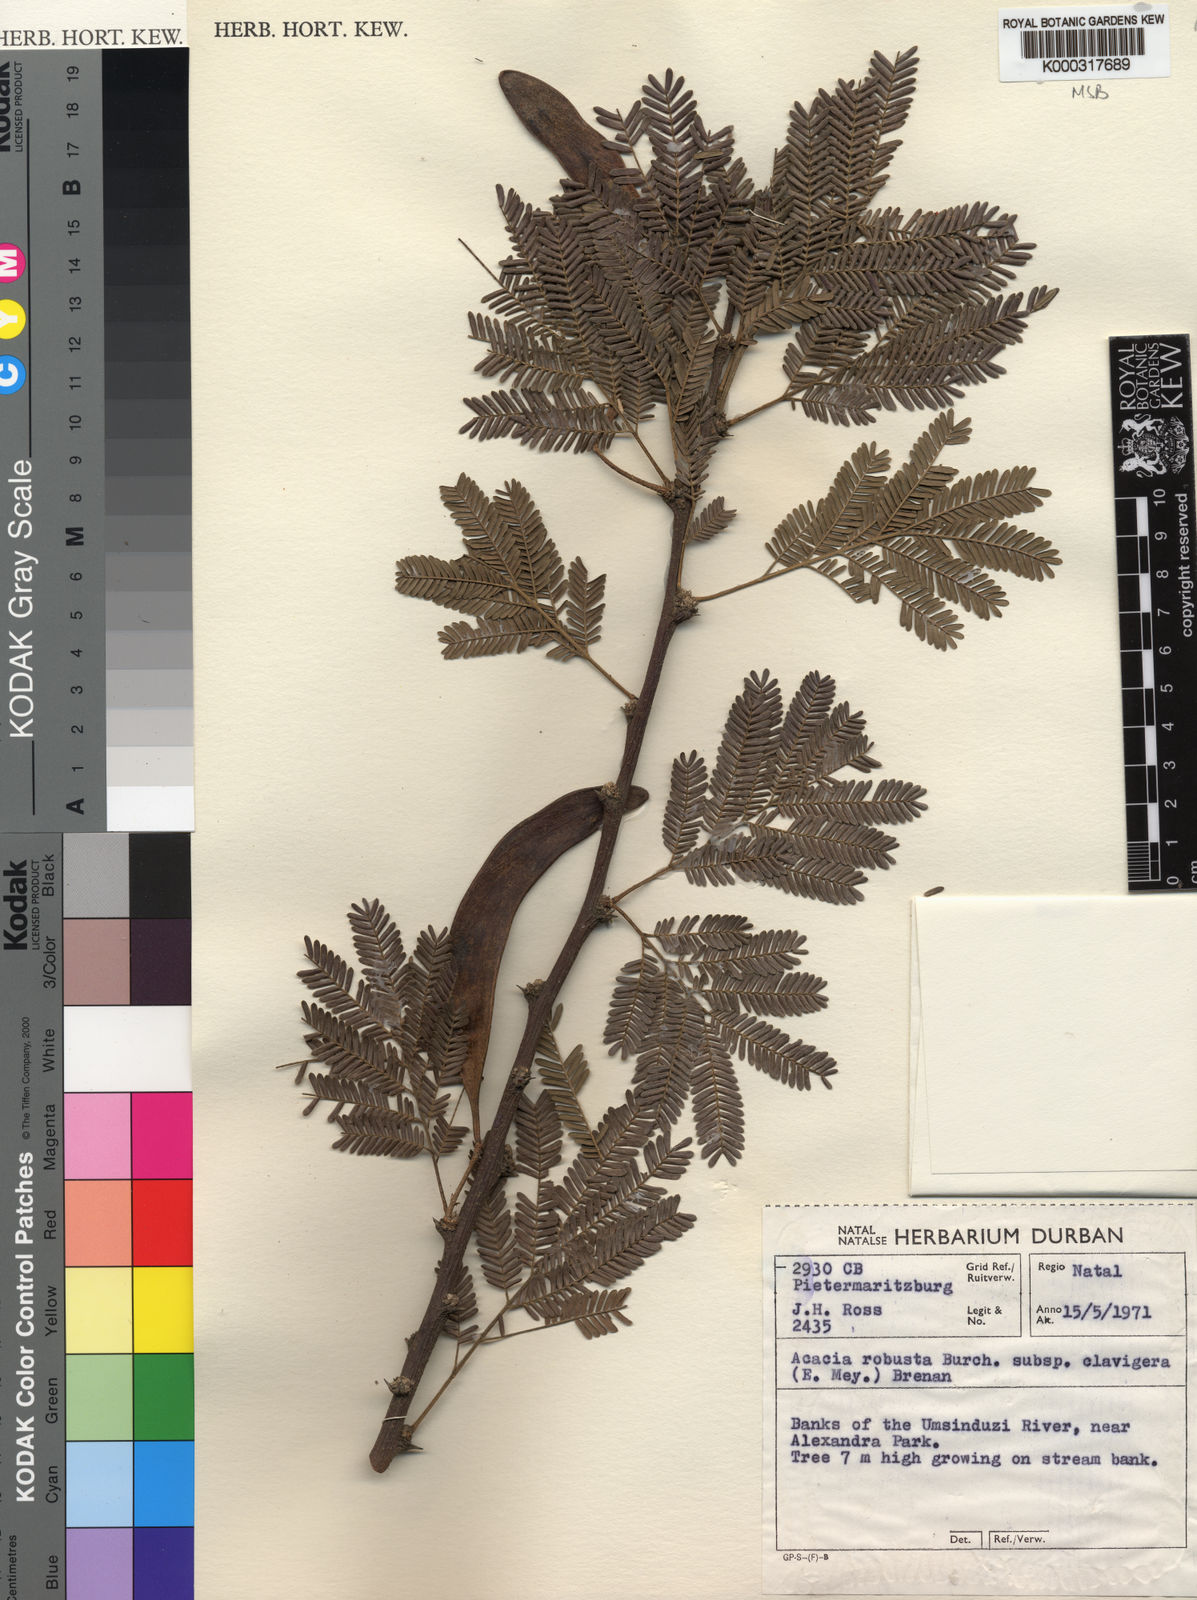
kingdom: Plantae
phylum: Tracheophyta
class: Magnoliopsida
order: Fabales
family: Fabaceae
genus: Vachellia
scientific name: Vachellia robusta
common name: Ankle thorn
